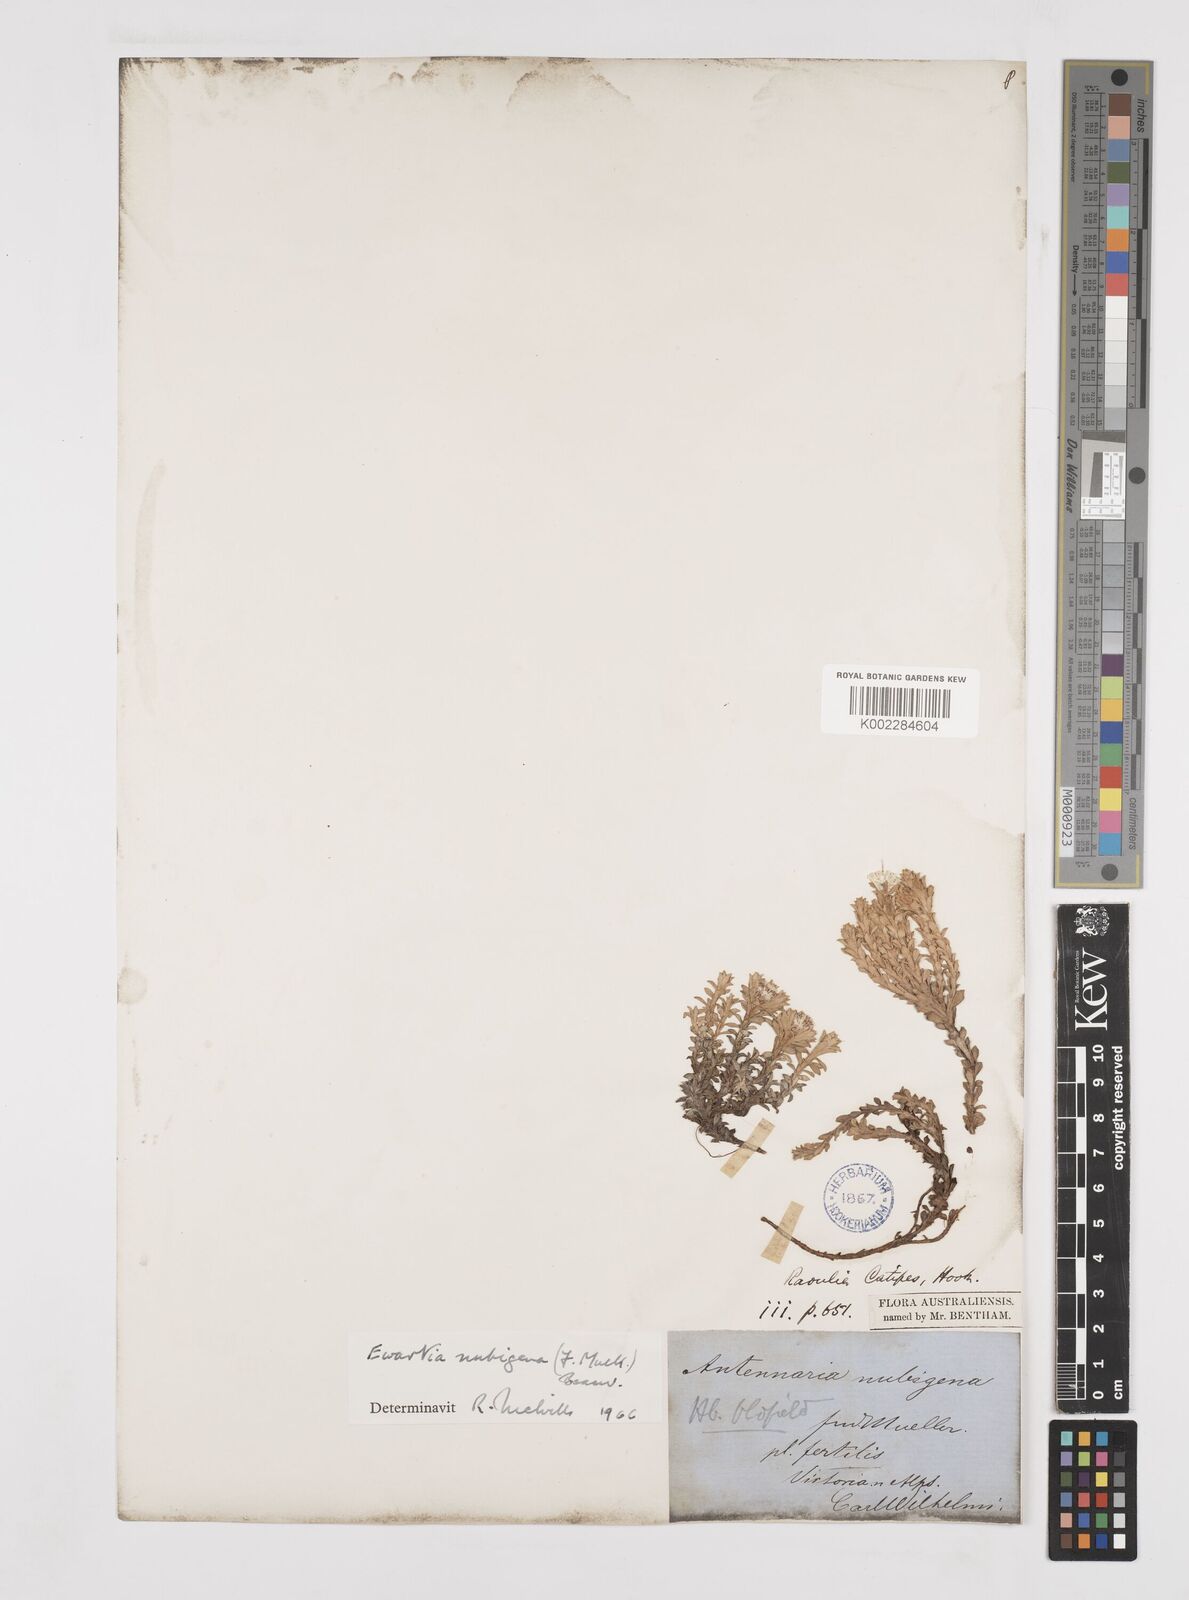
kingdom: Plantae
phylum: Tracheophyta
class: Magnoliopsida
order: Asterales
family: Asteraceae
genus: Ewartia
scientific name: Ewartia nubigena
